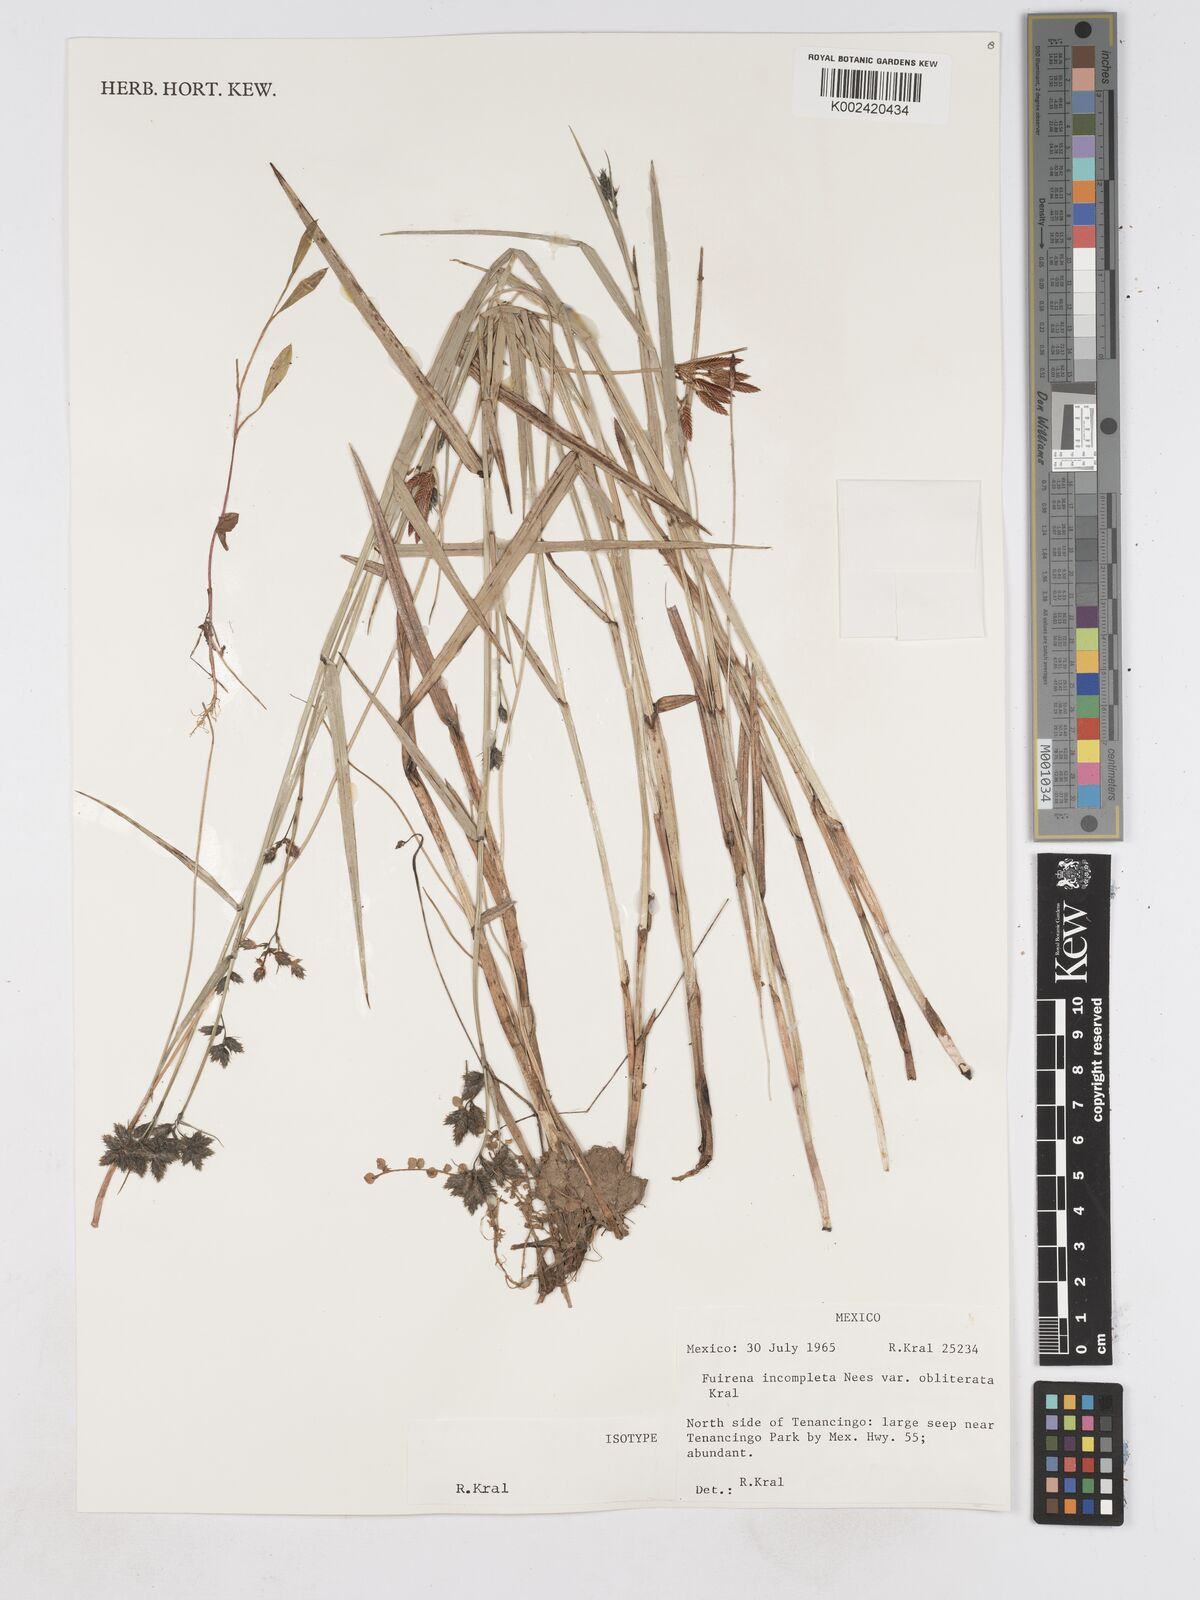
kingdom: Plantae
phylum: Tracheophyta
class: Liliopsida
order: Poales
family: Cyperaceae
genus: Fuirena
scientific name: Fuirena incompleta
